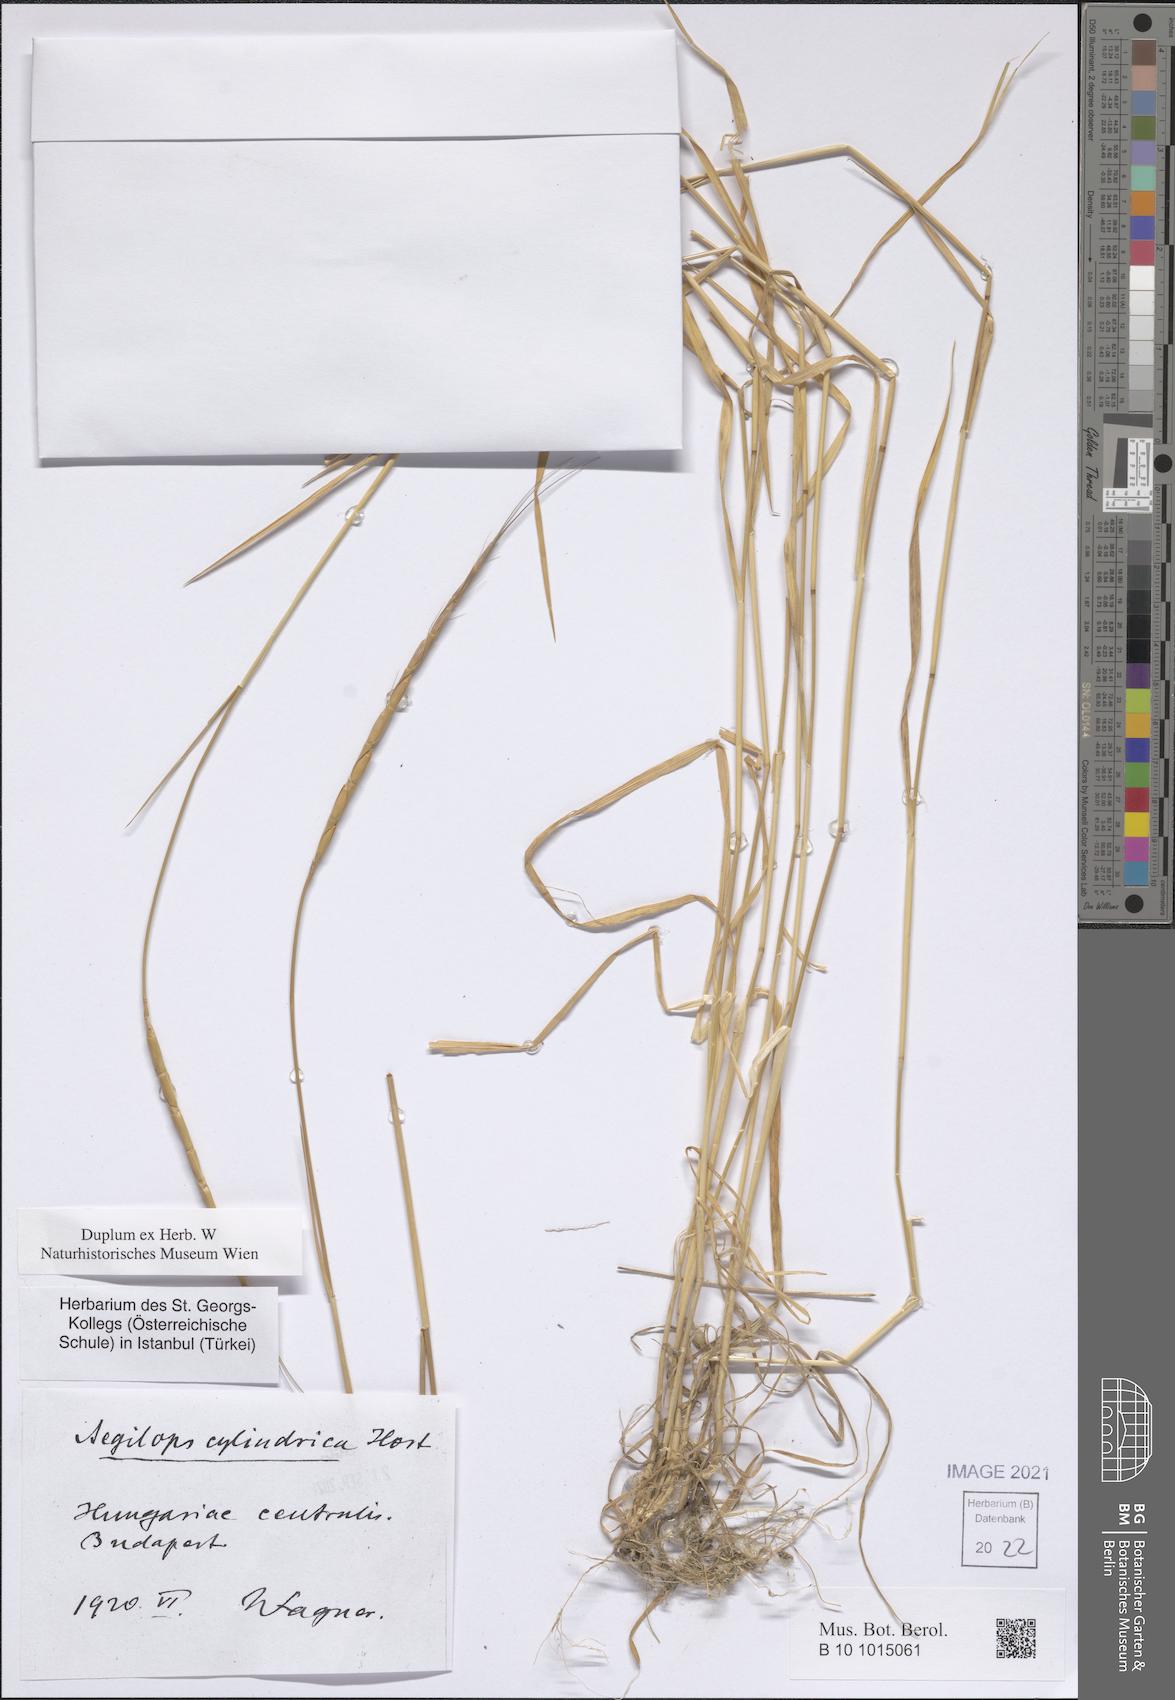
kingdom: Plantae
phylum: Tracheophyta
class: Liliopsida
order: Poales
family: Poaceae
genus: Aegilops
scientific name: Aegilops caudata
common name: Cretan hard-grass
